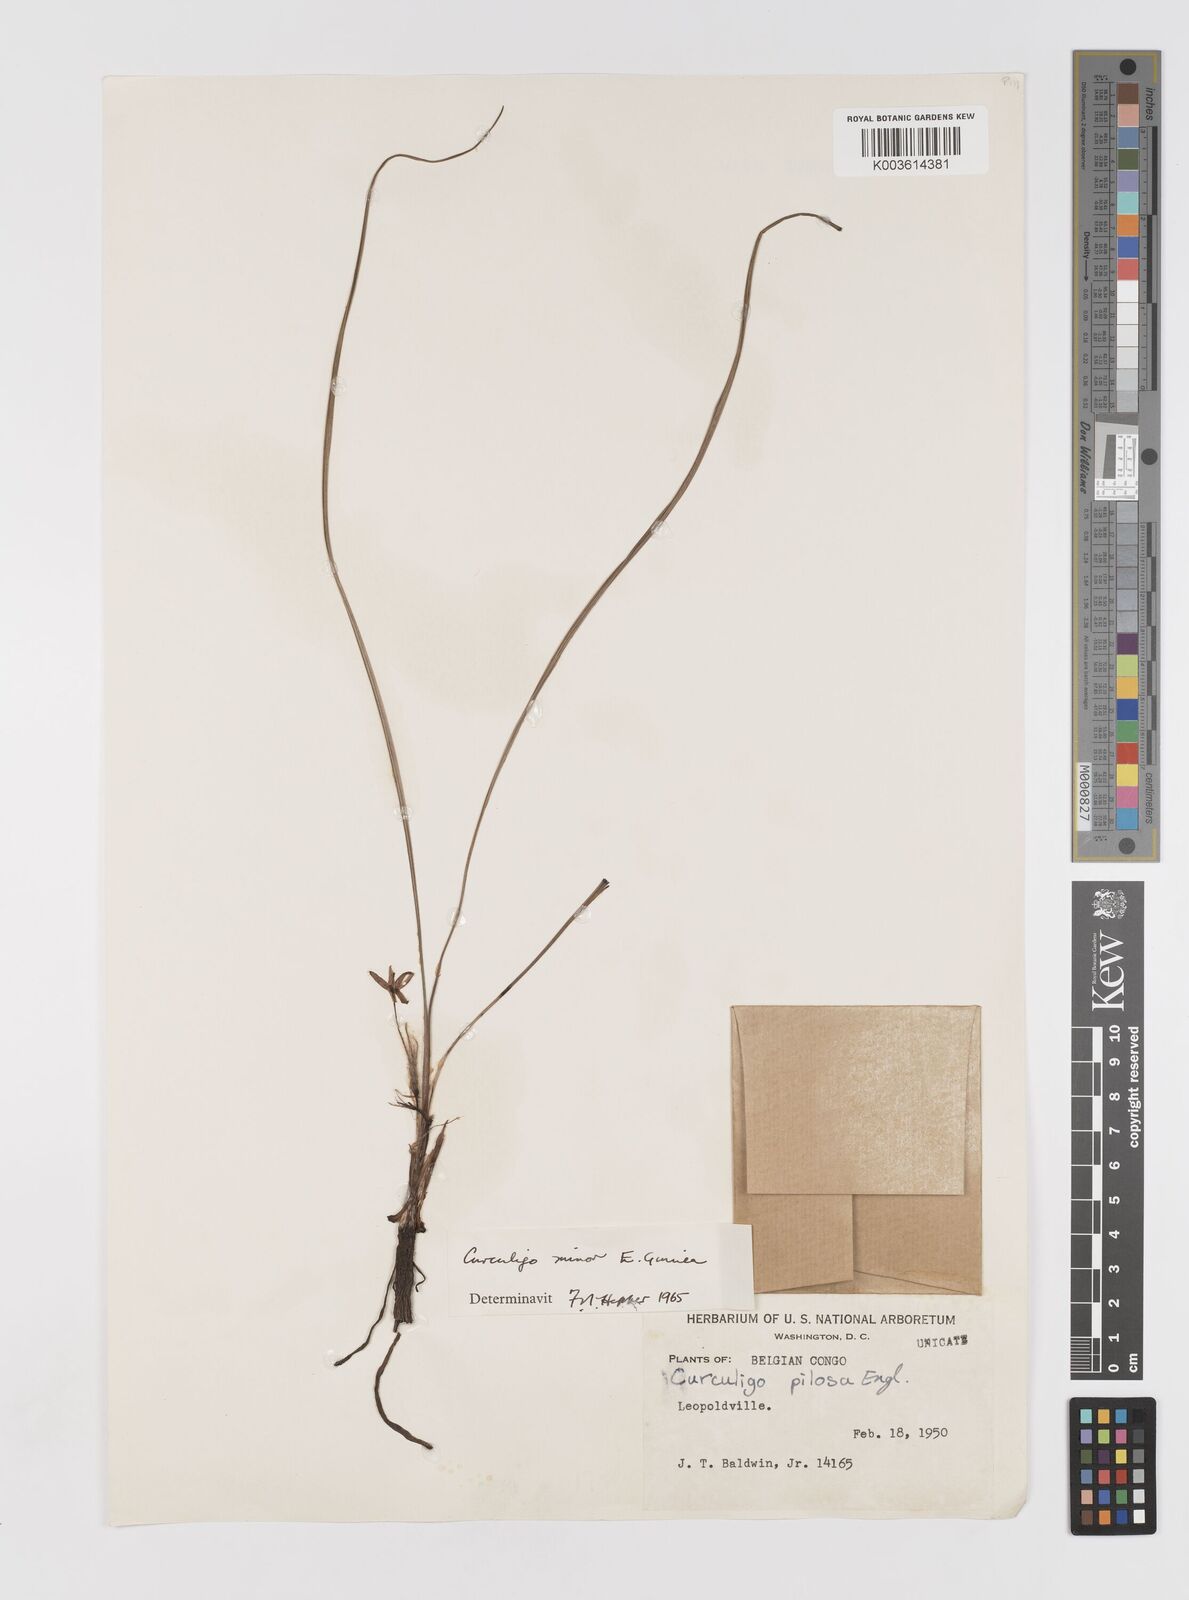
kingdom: Plantae
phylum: Tracheophyta
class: Liliopsida
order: Asparagales
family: Hypoxidaceae
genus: Curculigo
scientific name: Curculigo pilosa
